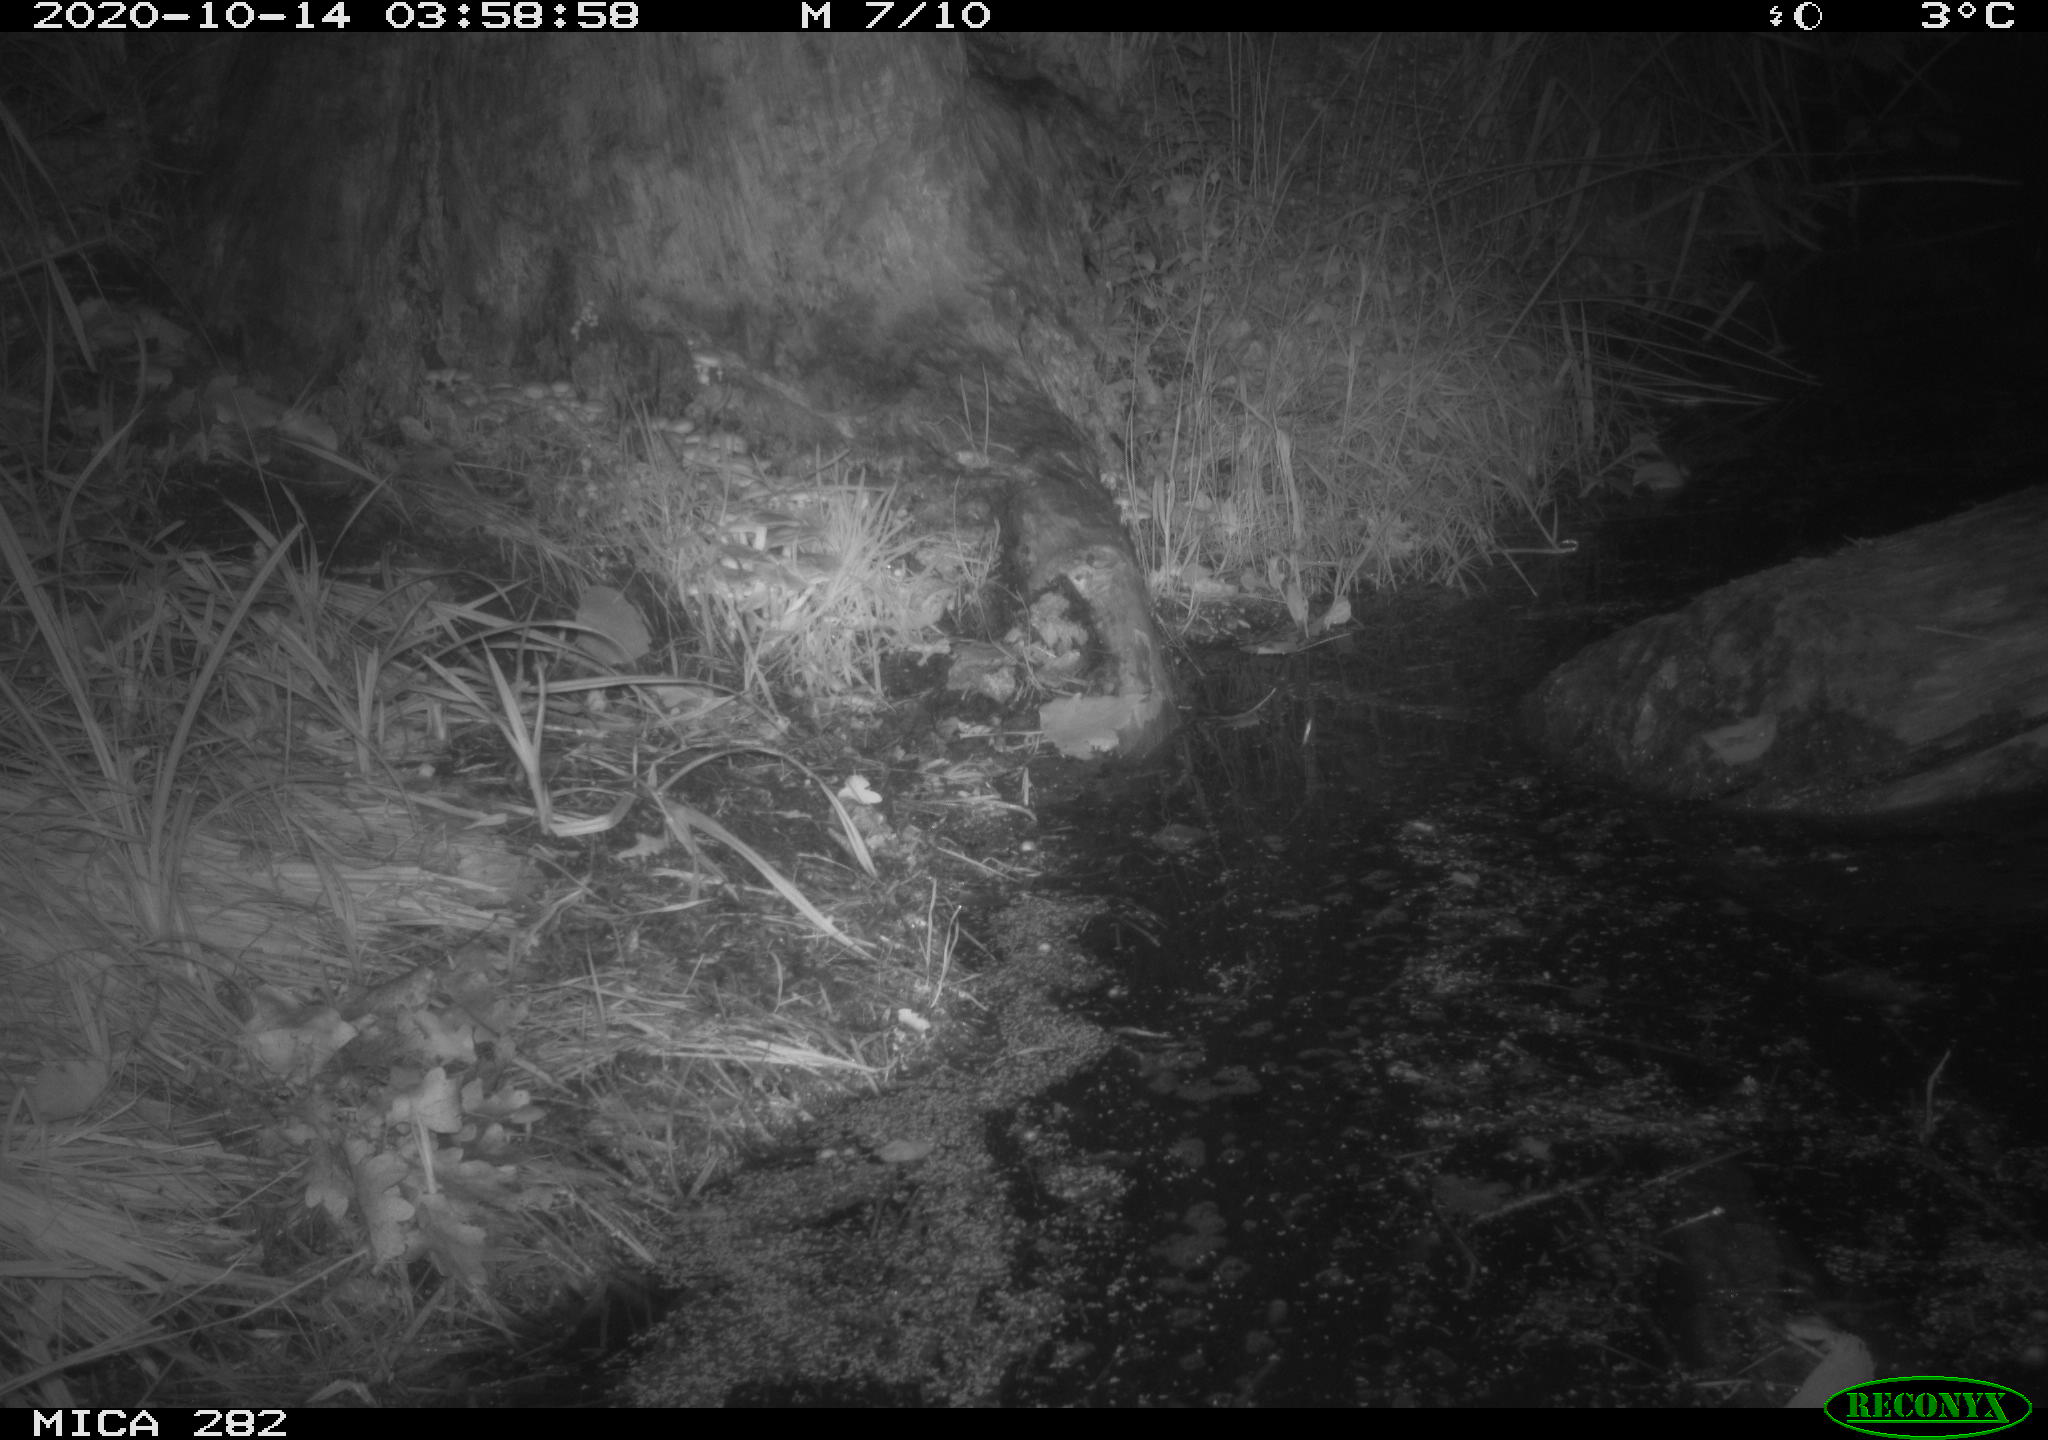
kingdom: Animalia
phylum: Chordata
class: Mammalia
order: Soricomorpha
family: Soricidae
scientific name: Soricidae
